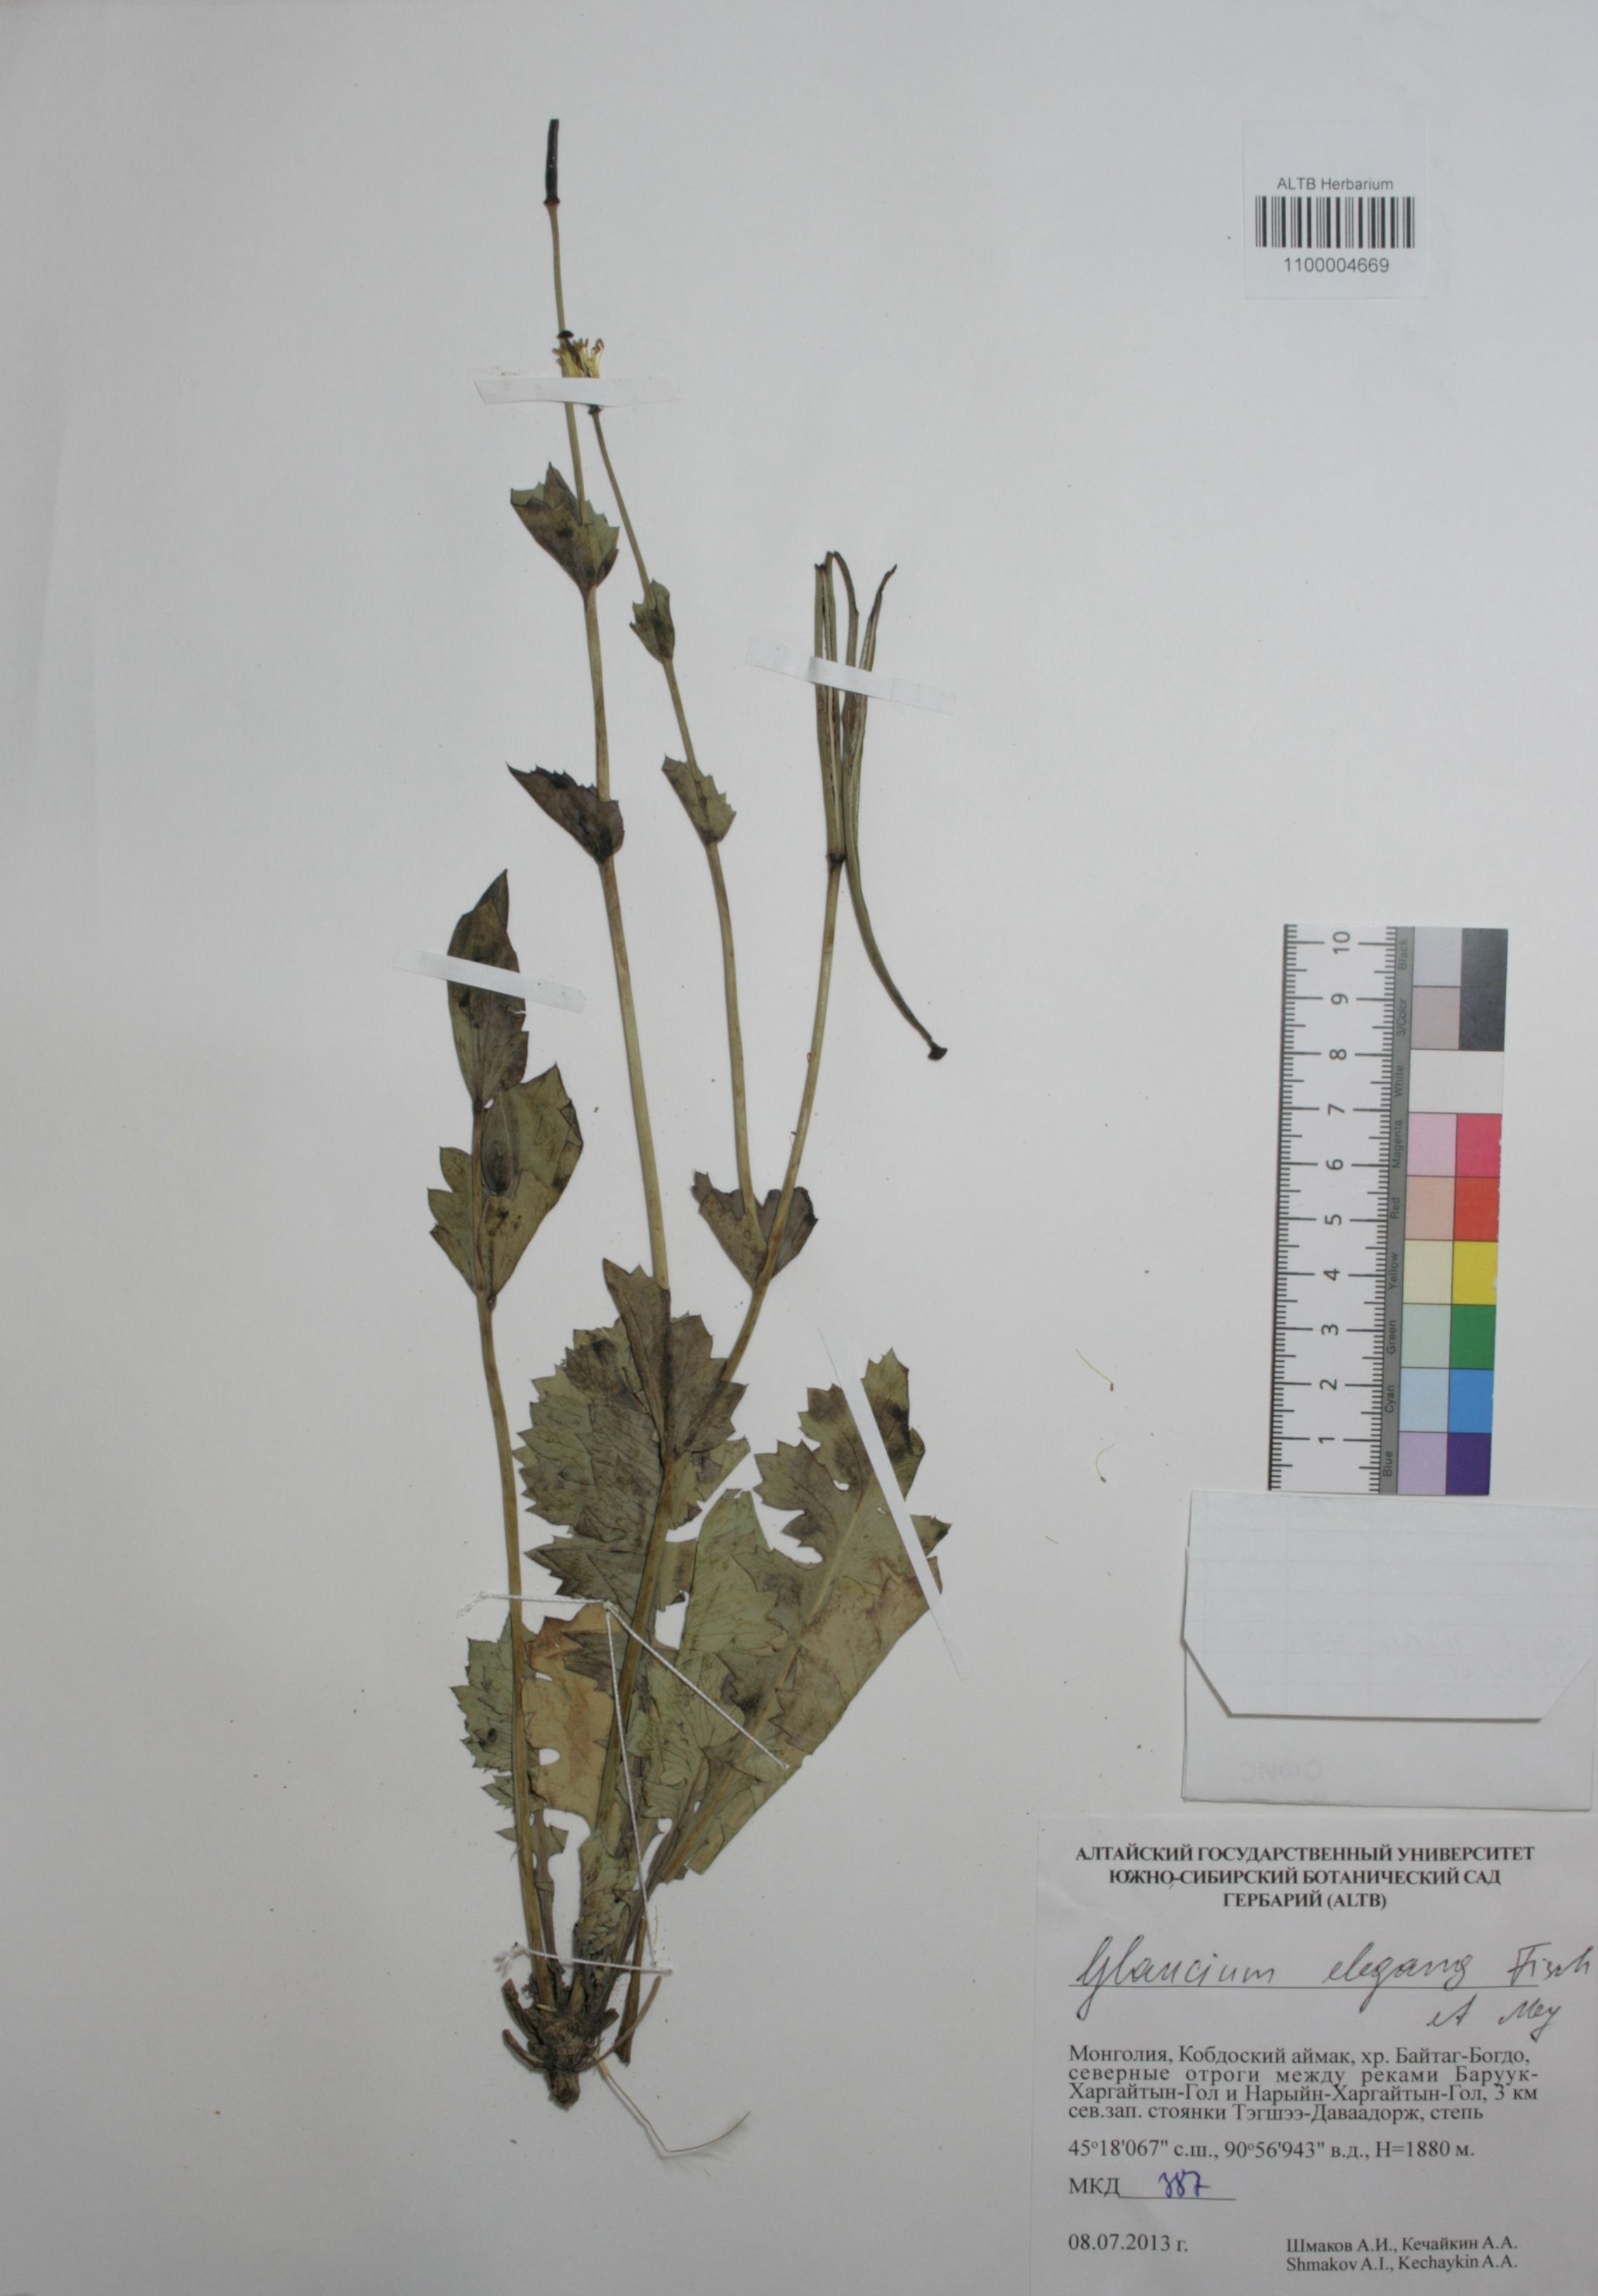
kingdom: Plantae
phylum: Tracheophyta
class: Magnoliopsida
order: Ranunculales
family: Papaveraceae
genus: Glaucium
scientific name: Glaucium elegans
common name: Annual horned-poppy
